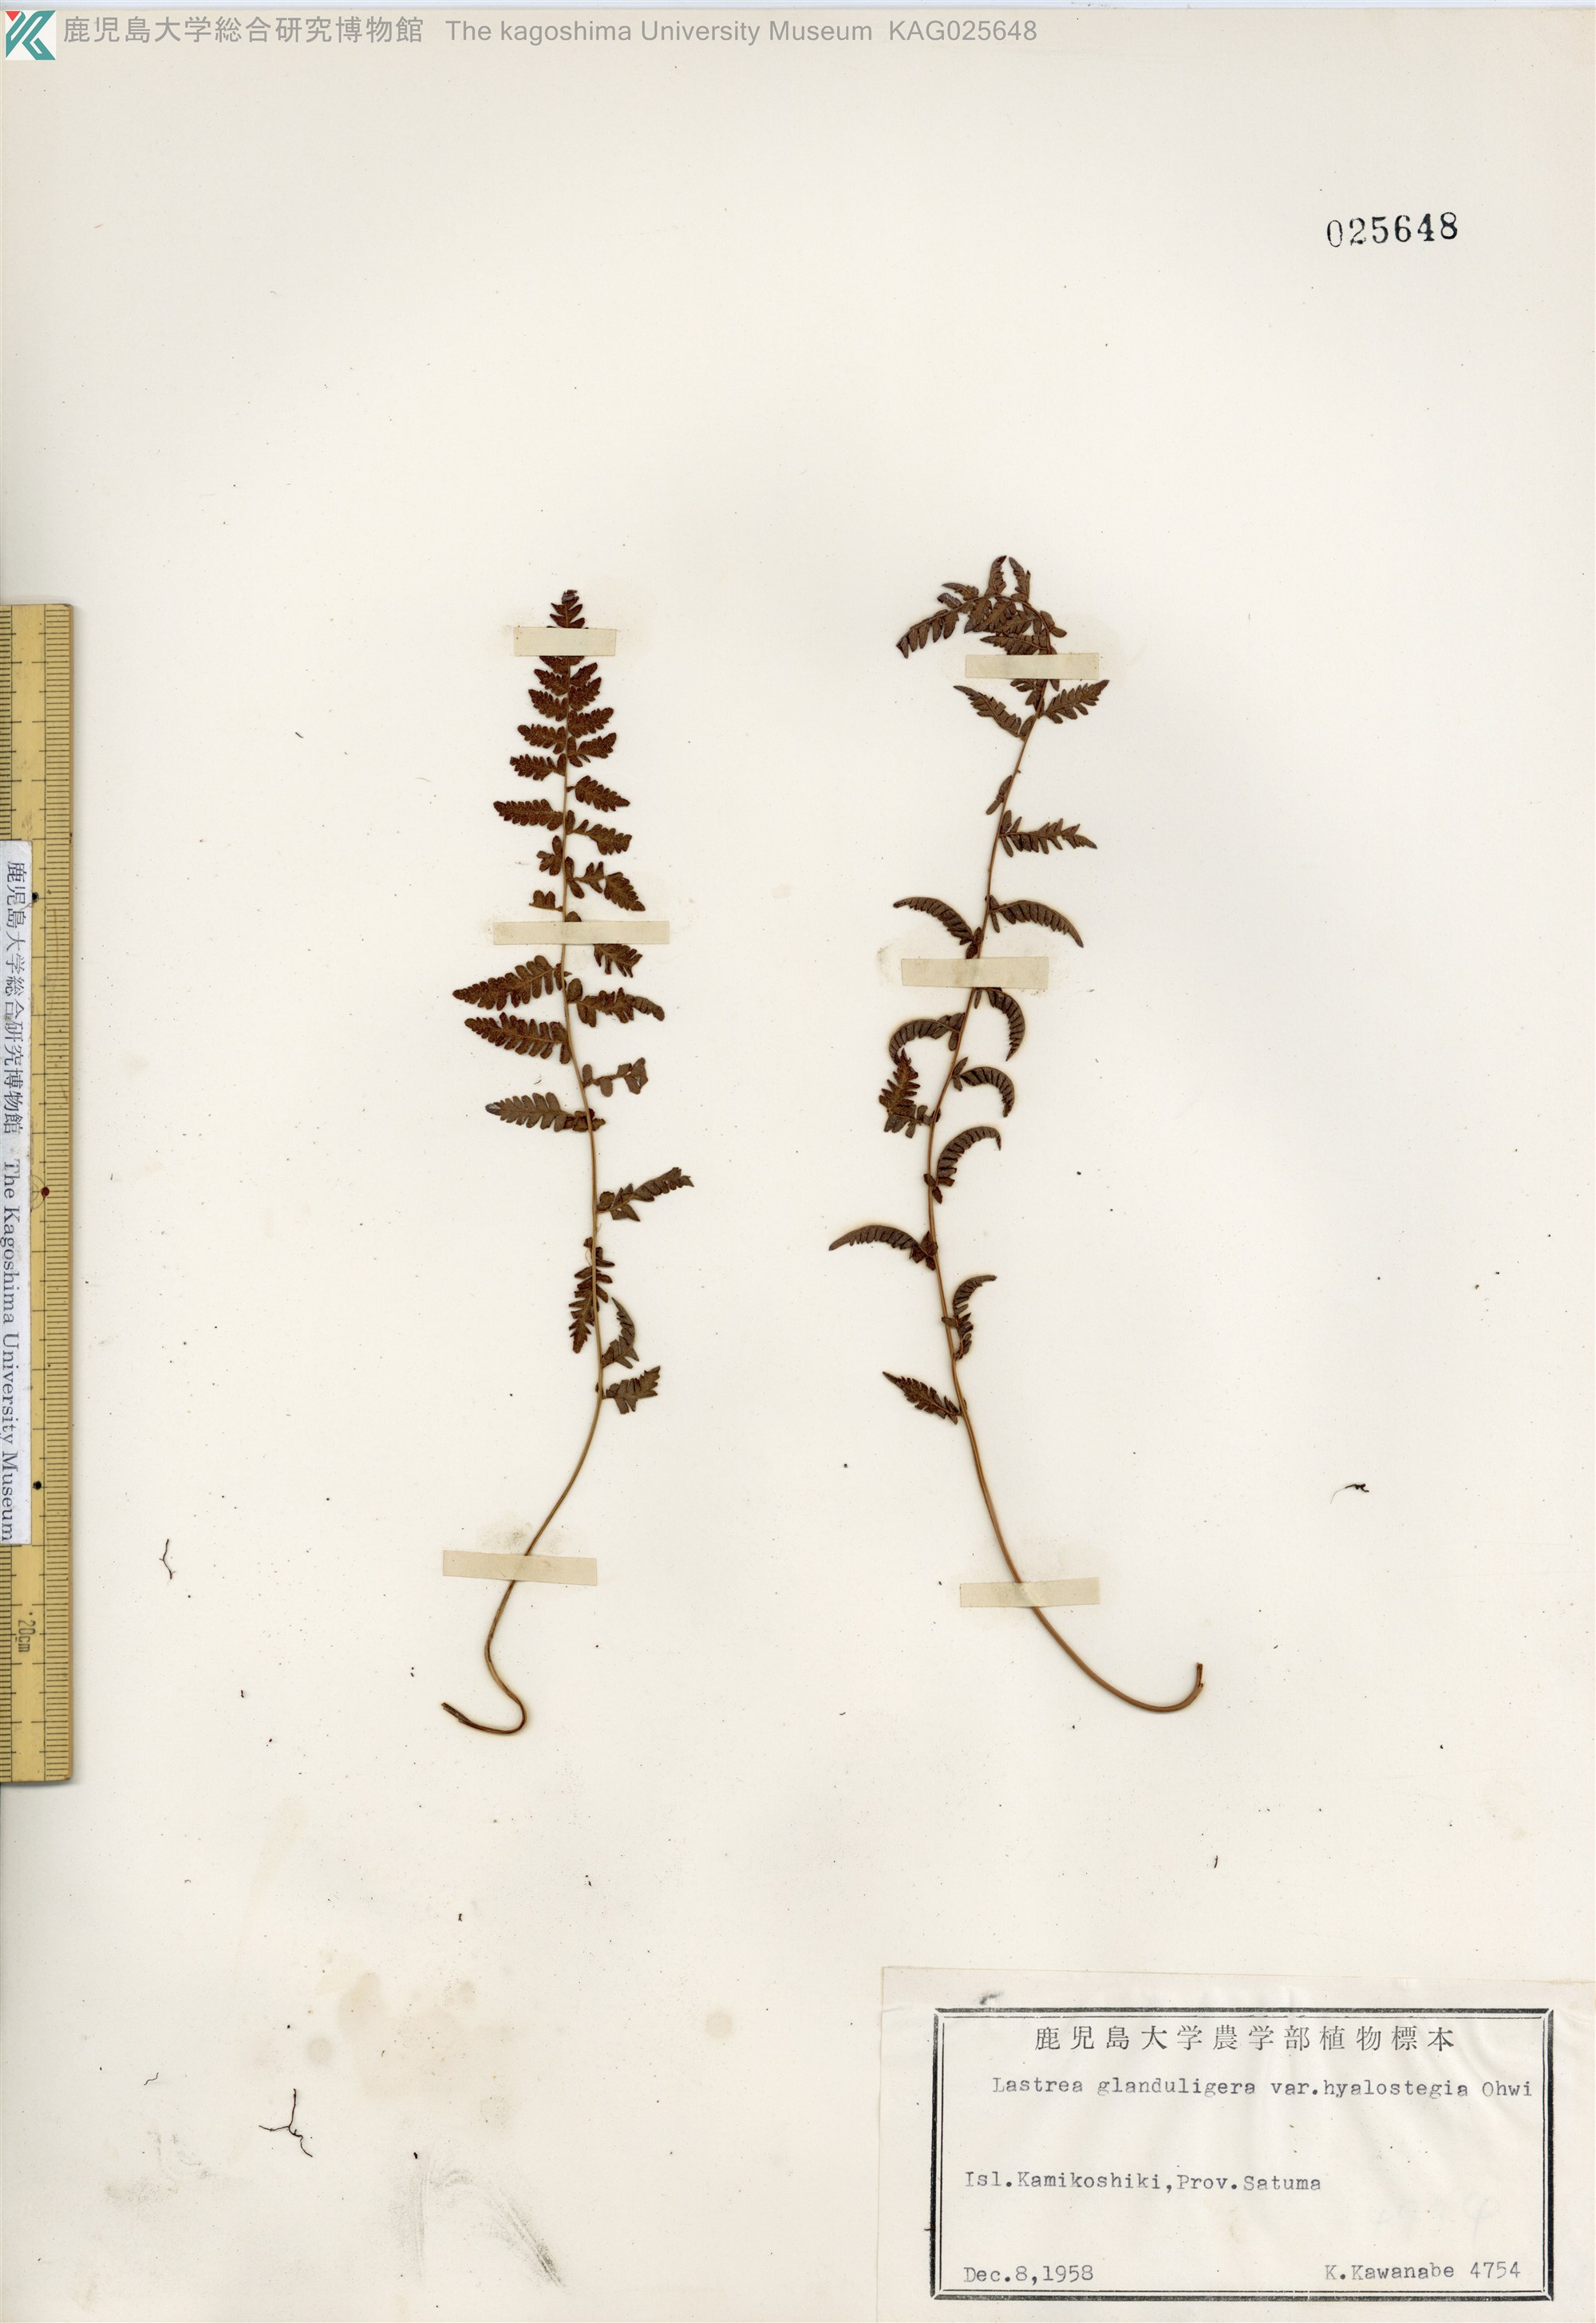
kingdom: Plantae
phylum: Tracheophyta
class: Polypodiopsida
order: Polypodiales
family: Thelypteridaceae
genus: Amauropelta
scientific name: Amauropelta angustifrons
